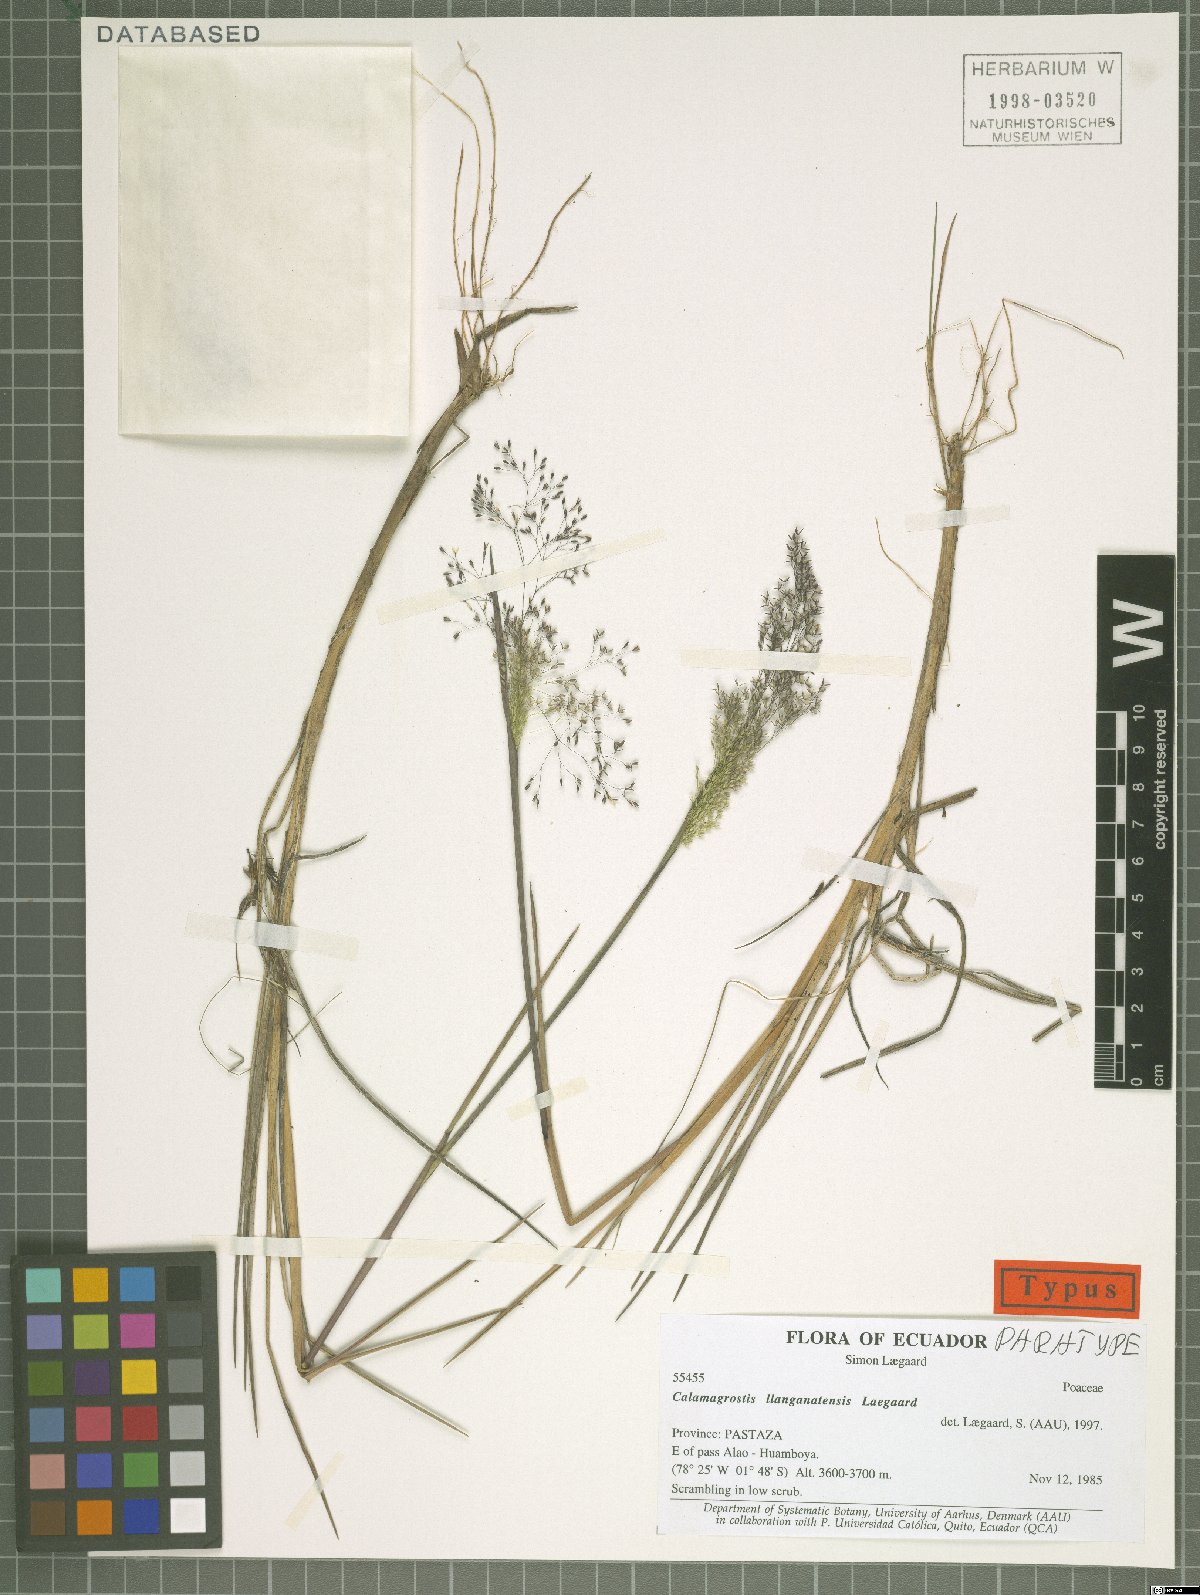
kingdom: Plantae
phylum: Tracheophyta
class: Liliopsida
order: Poales
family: Poaceae
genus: Calamagrostis
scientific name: Calamagrostis llanganatensis
